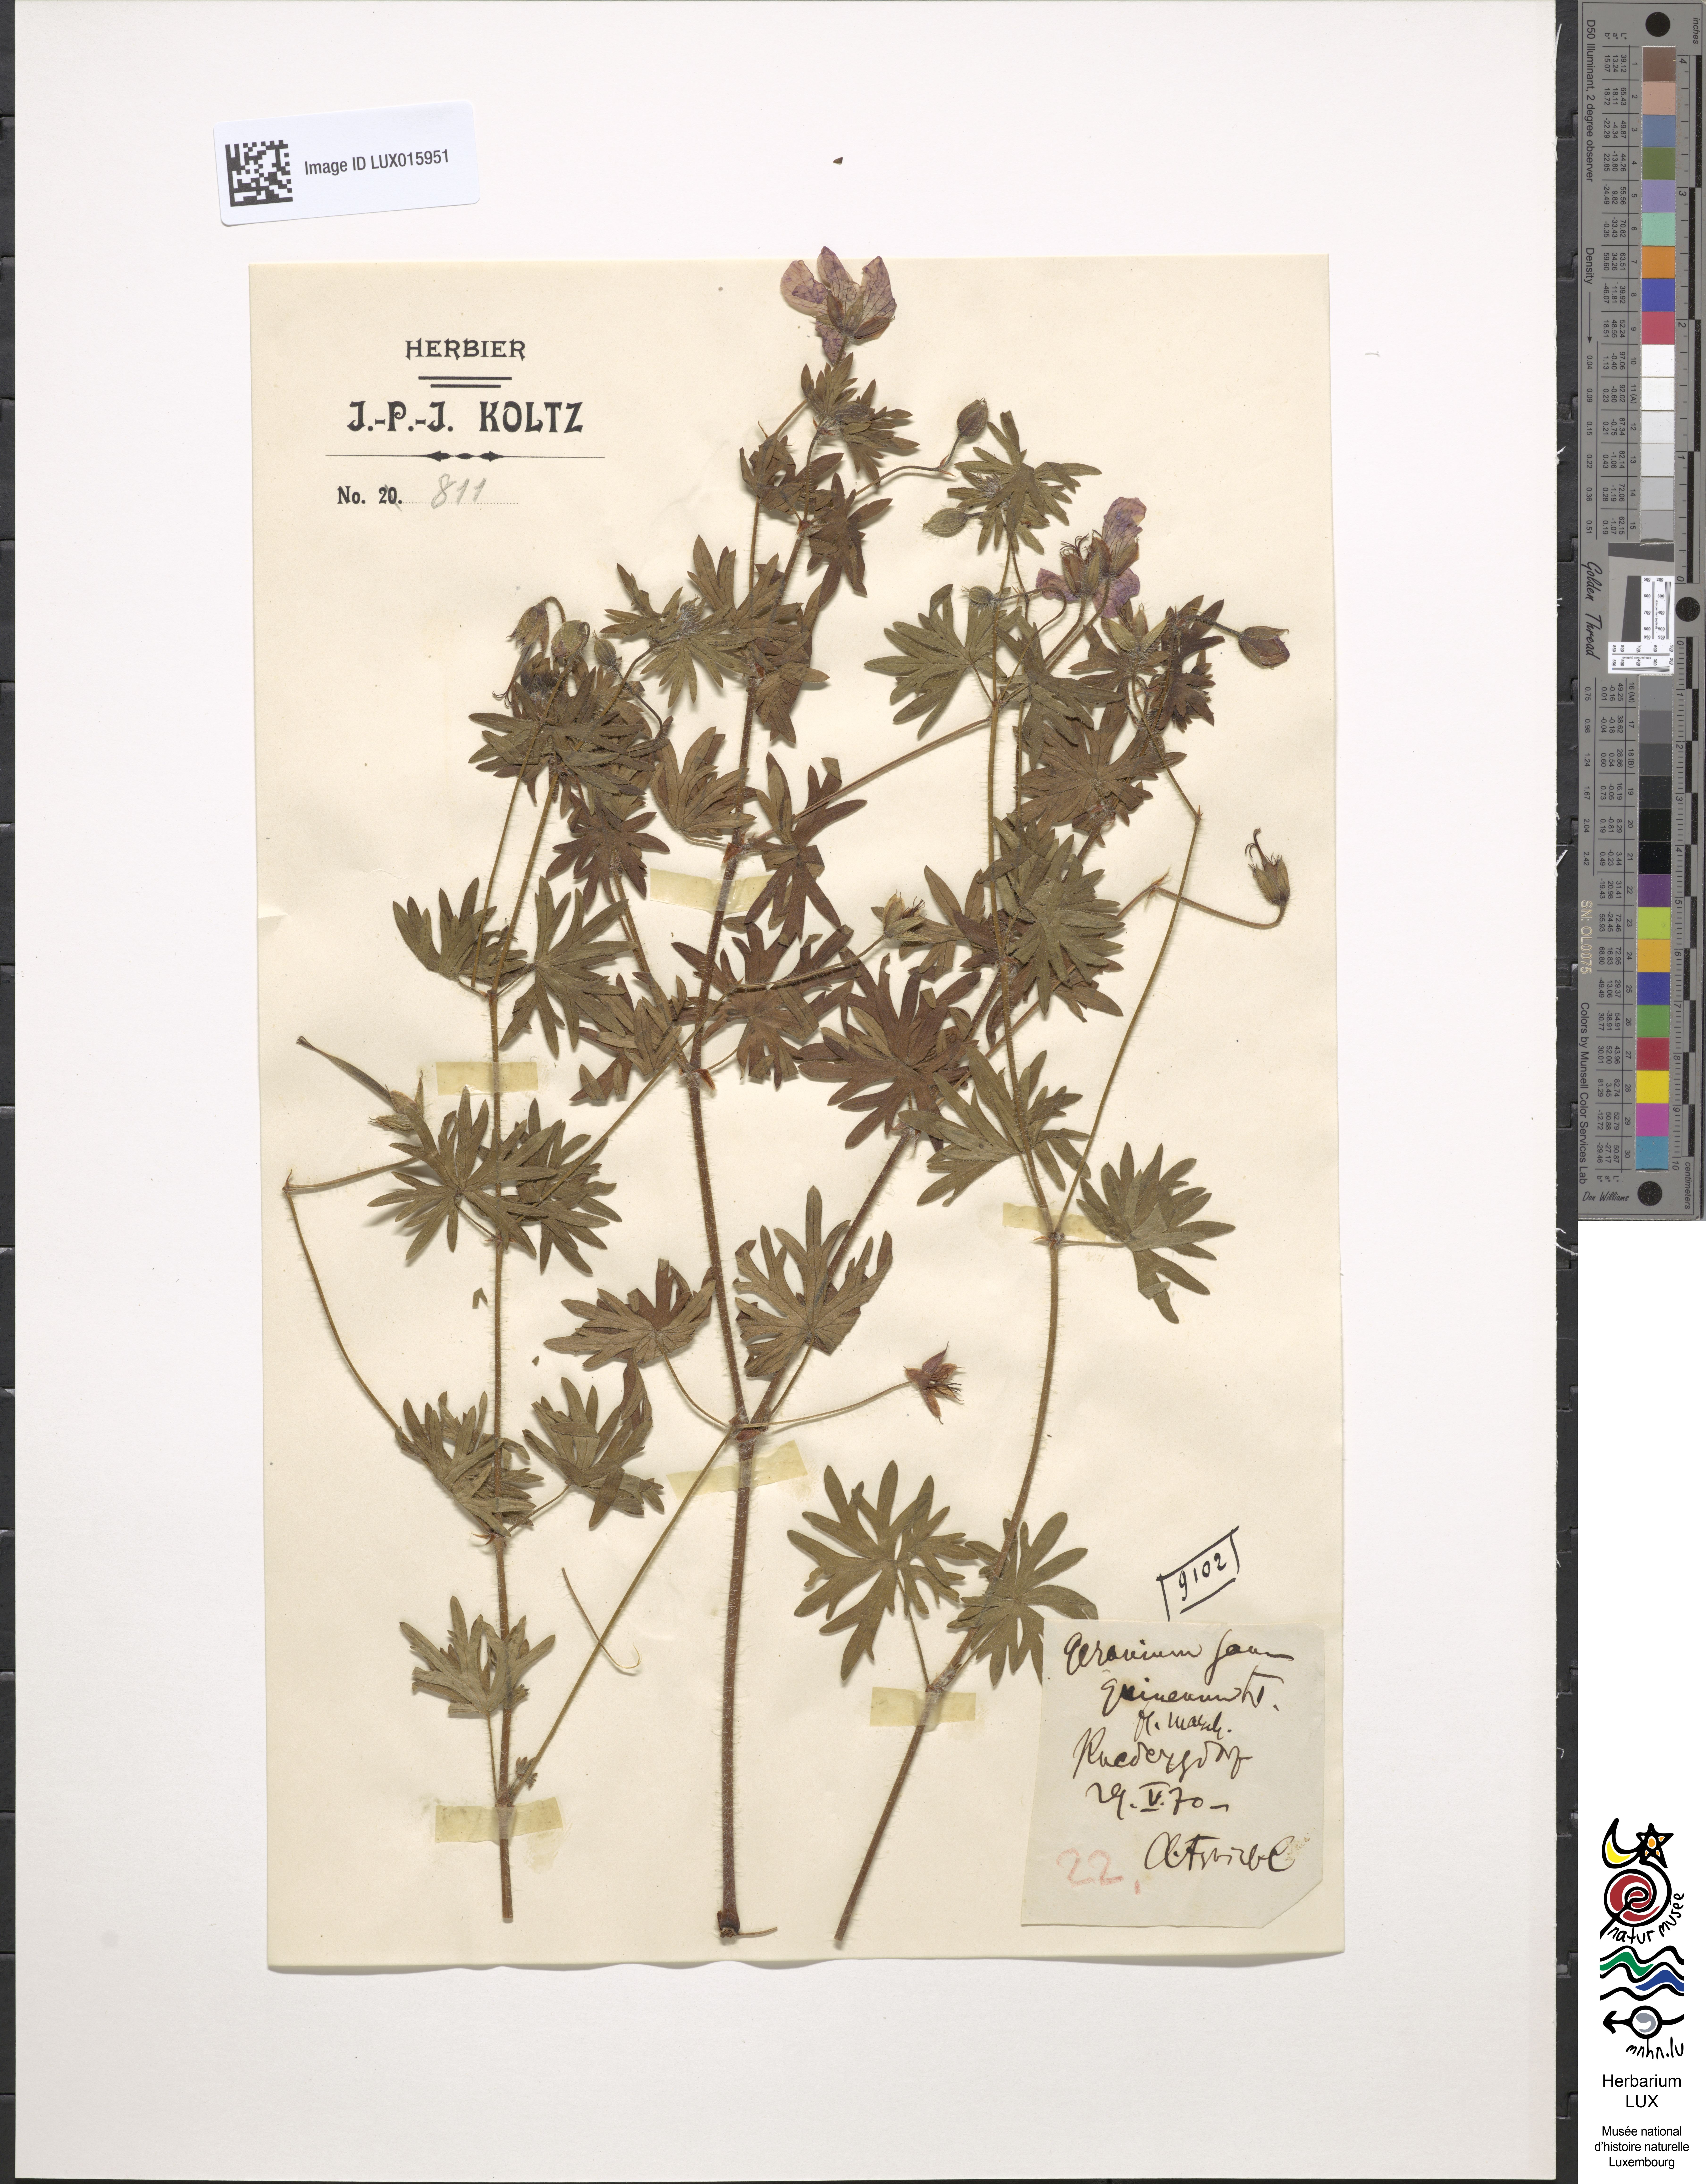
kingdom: Plantae
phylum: Tracheophyta
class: Magnoliopsida
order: Geraniales
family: Geraniaceae
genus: Geranium
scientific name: Geranium sanguineum
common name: Bloody crane's-bill
